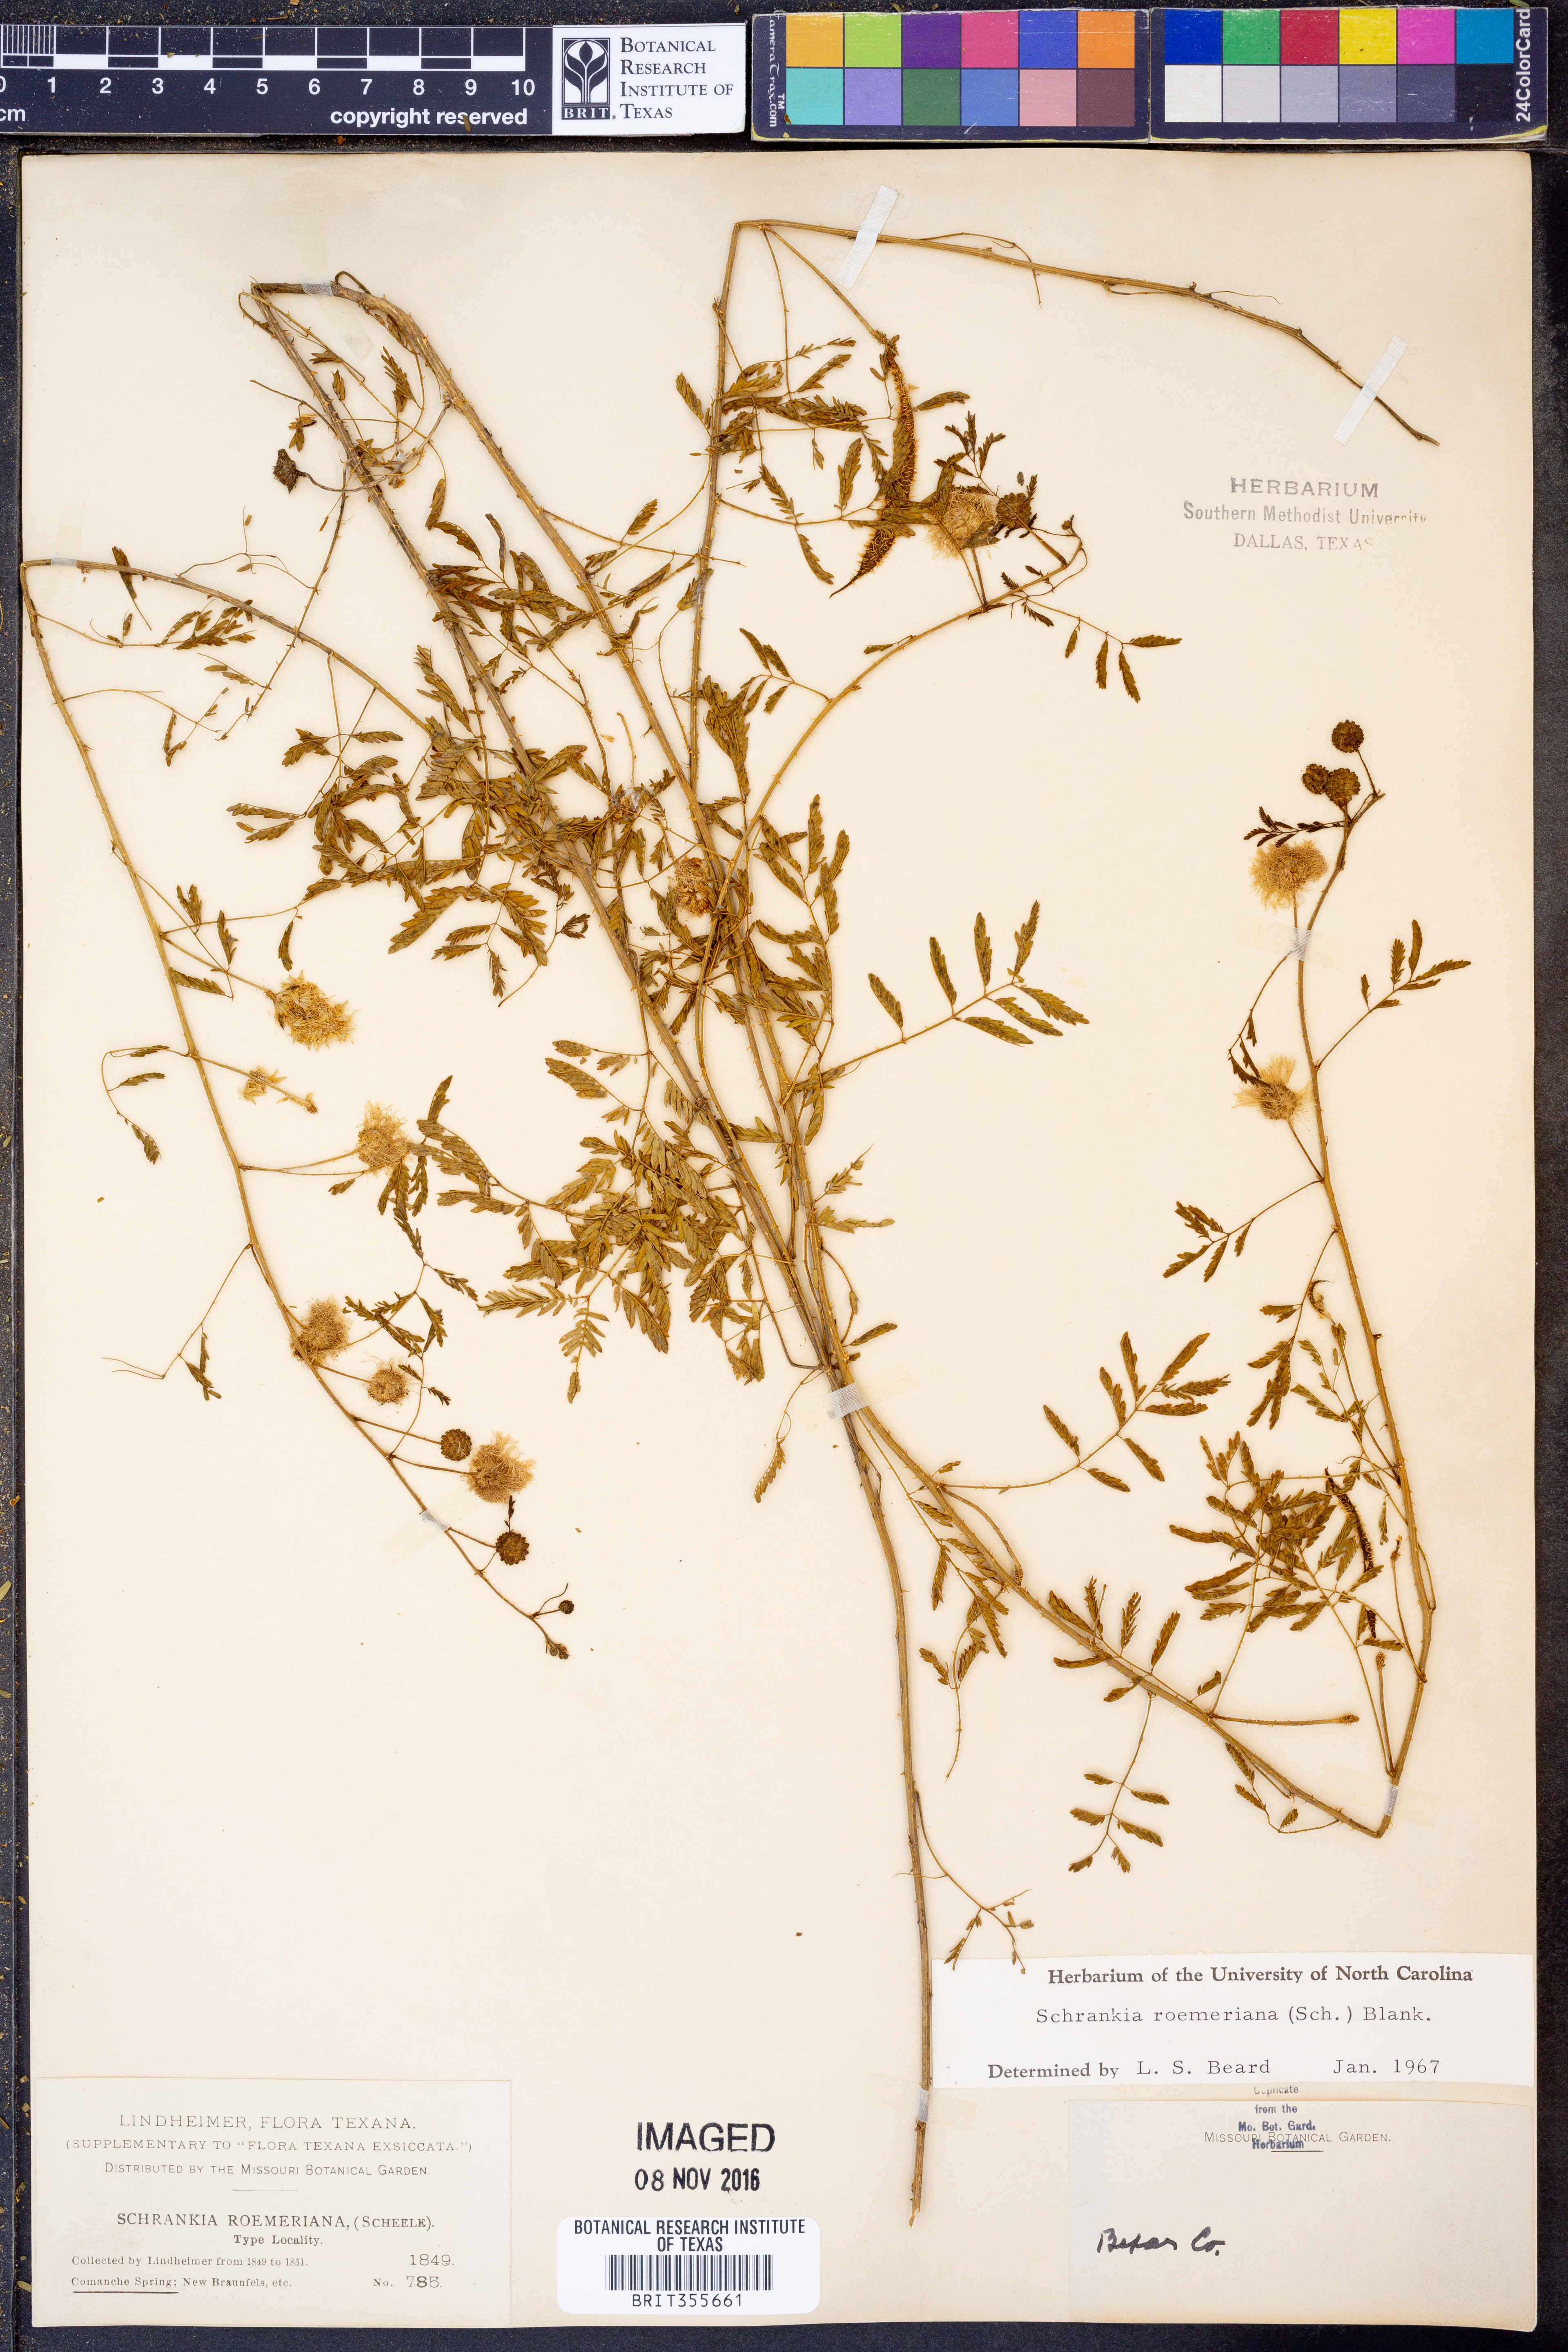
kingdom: Plantae
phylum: Tracheophyta
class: Magnoliopsida
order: Fabales
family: Fabaceae
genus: Mimosa
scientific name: Mimosa quadrivalvis
